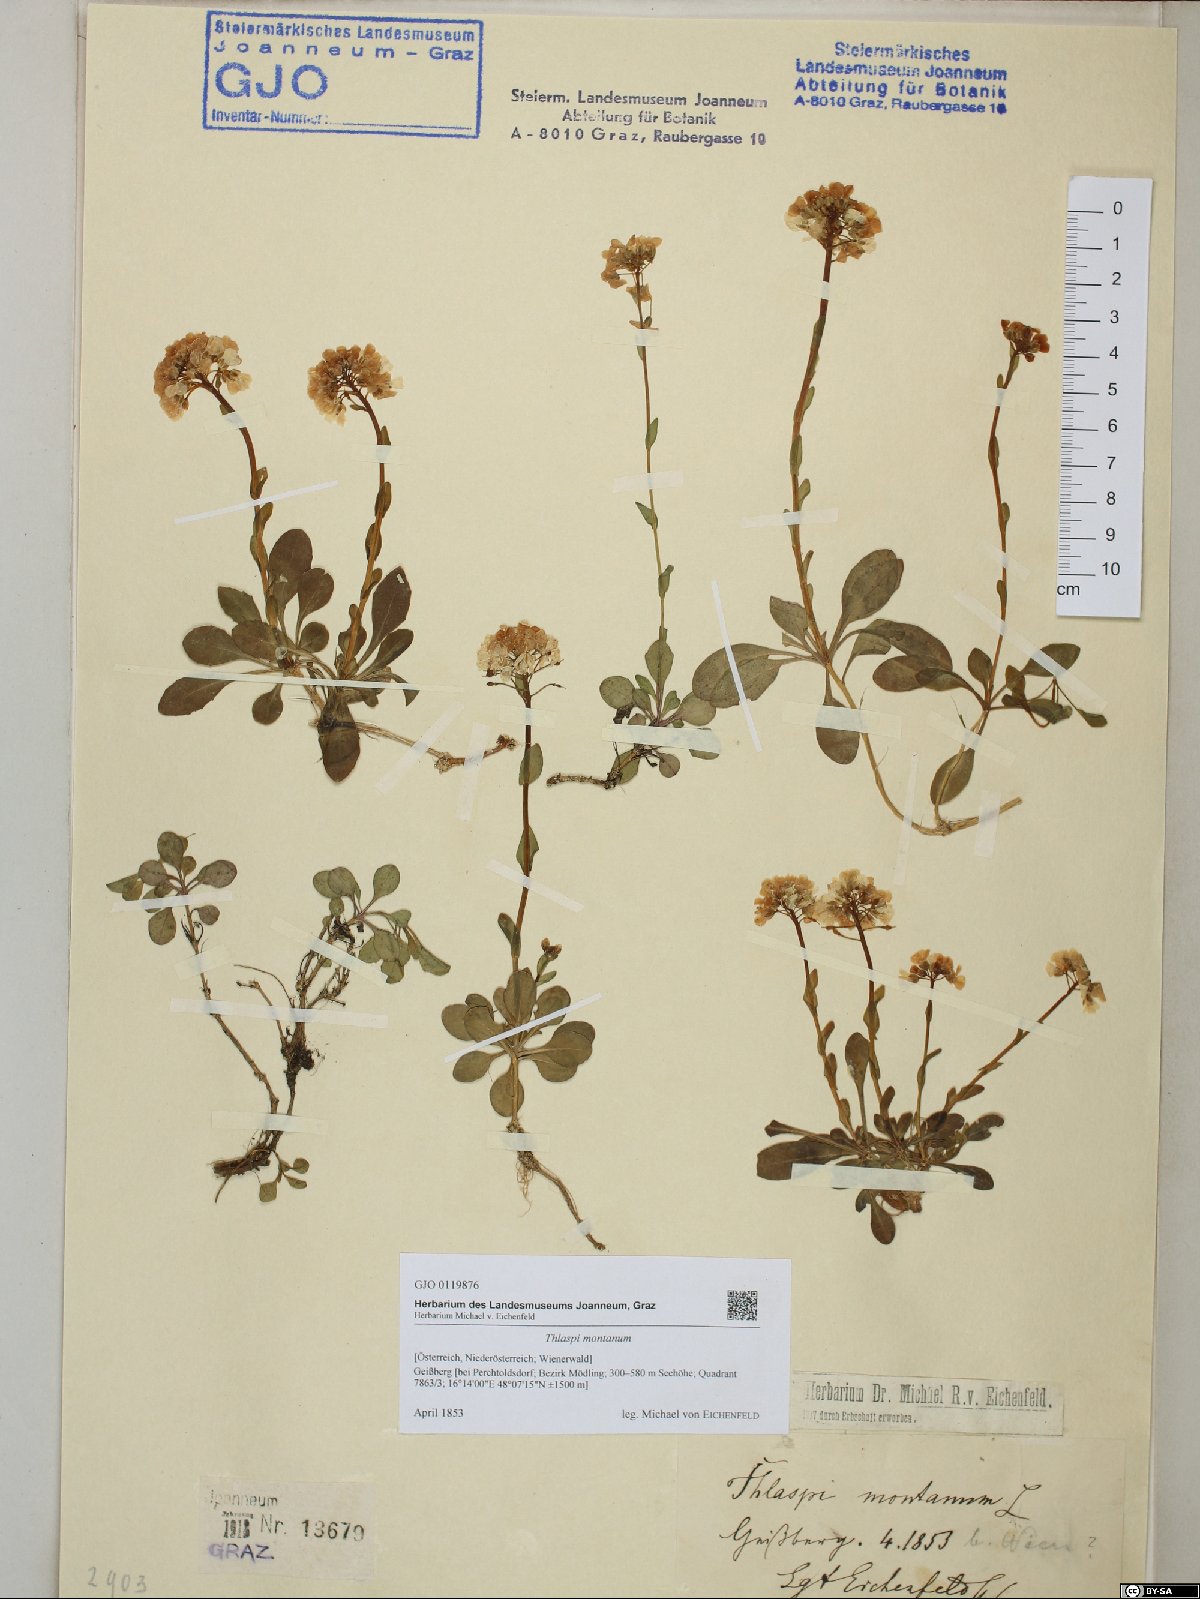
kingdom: Plantae
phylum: Tracheophyta
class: Magnoliopsida
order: Brassicales
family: Brassicaceae
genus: Noccaea
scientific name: Noccaea montana
